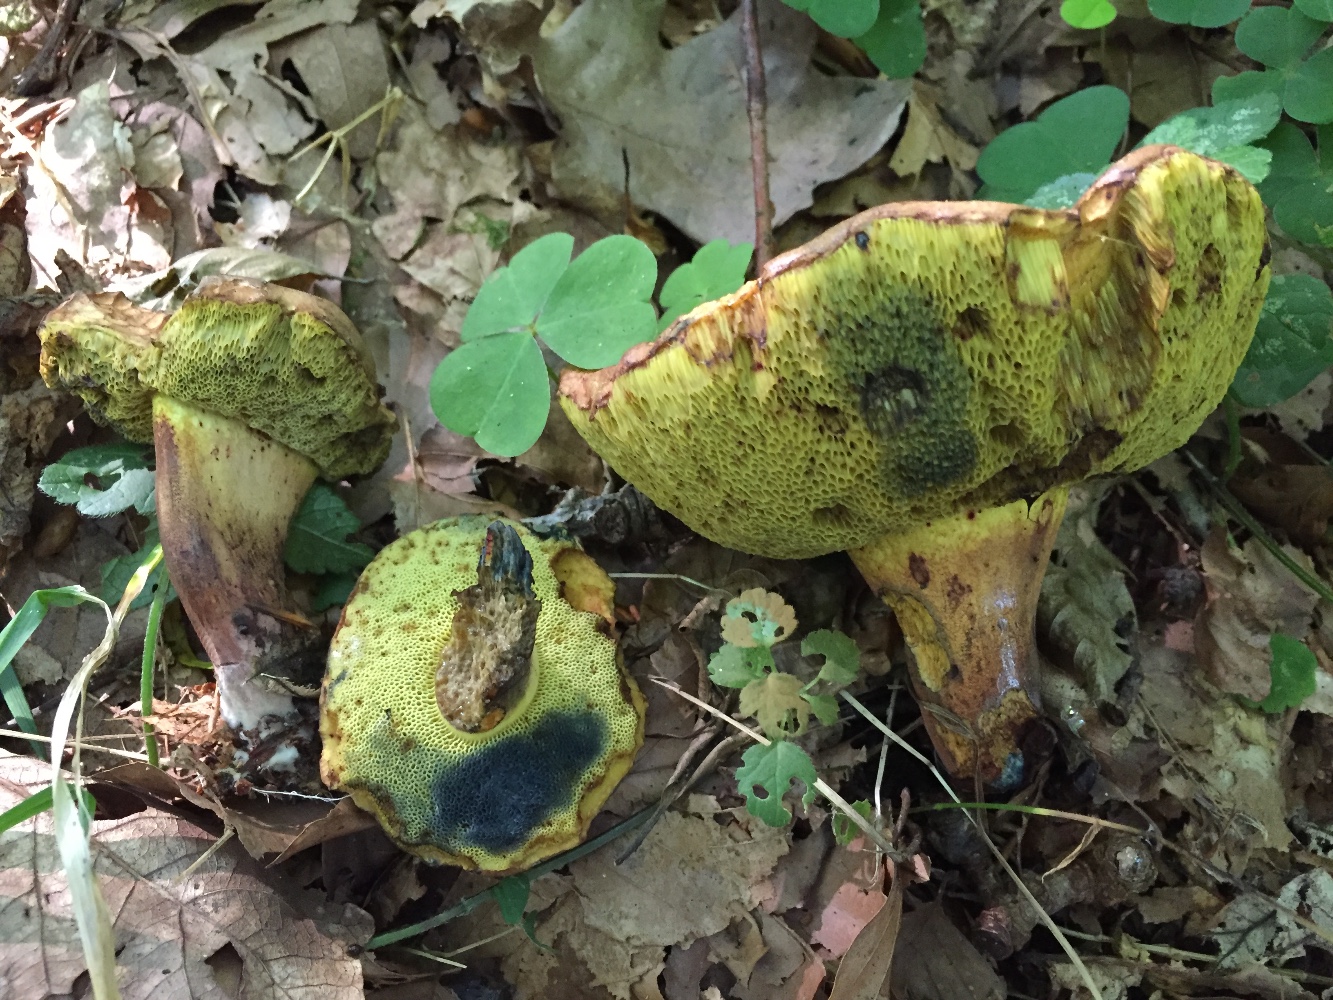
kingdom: Fungi
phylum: Basidiomycota
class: Agaricomycetes
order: Boletales
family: Boletaceae
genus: Cyanoboletus
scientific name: Cyanoboletus pulverulentus
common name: sortblånende rørhat
